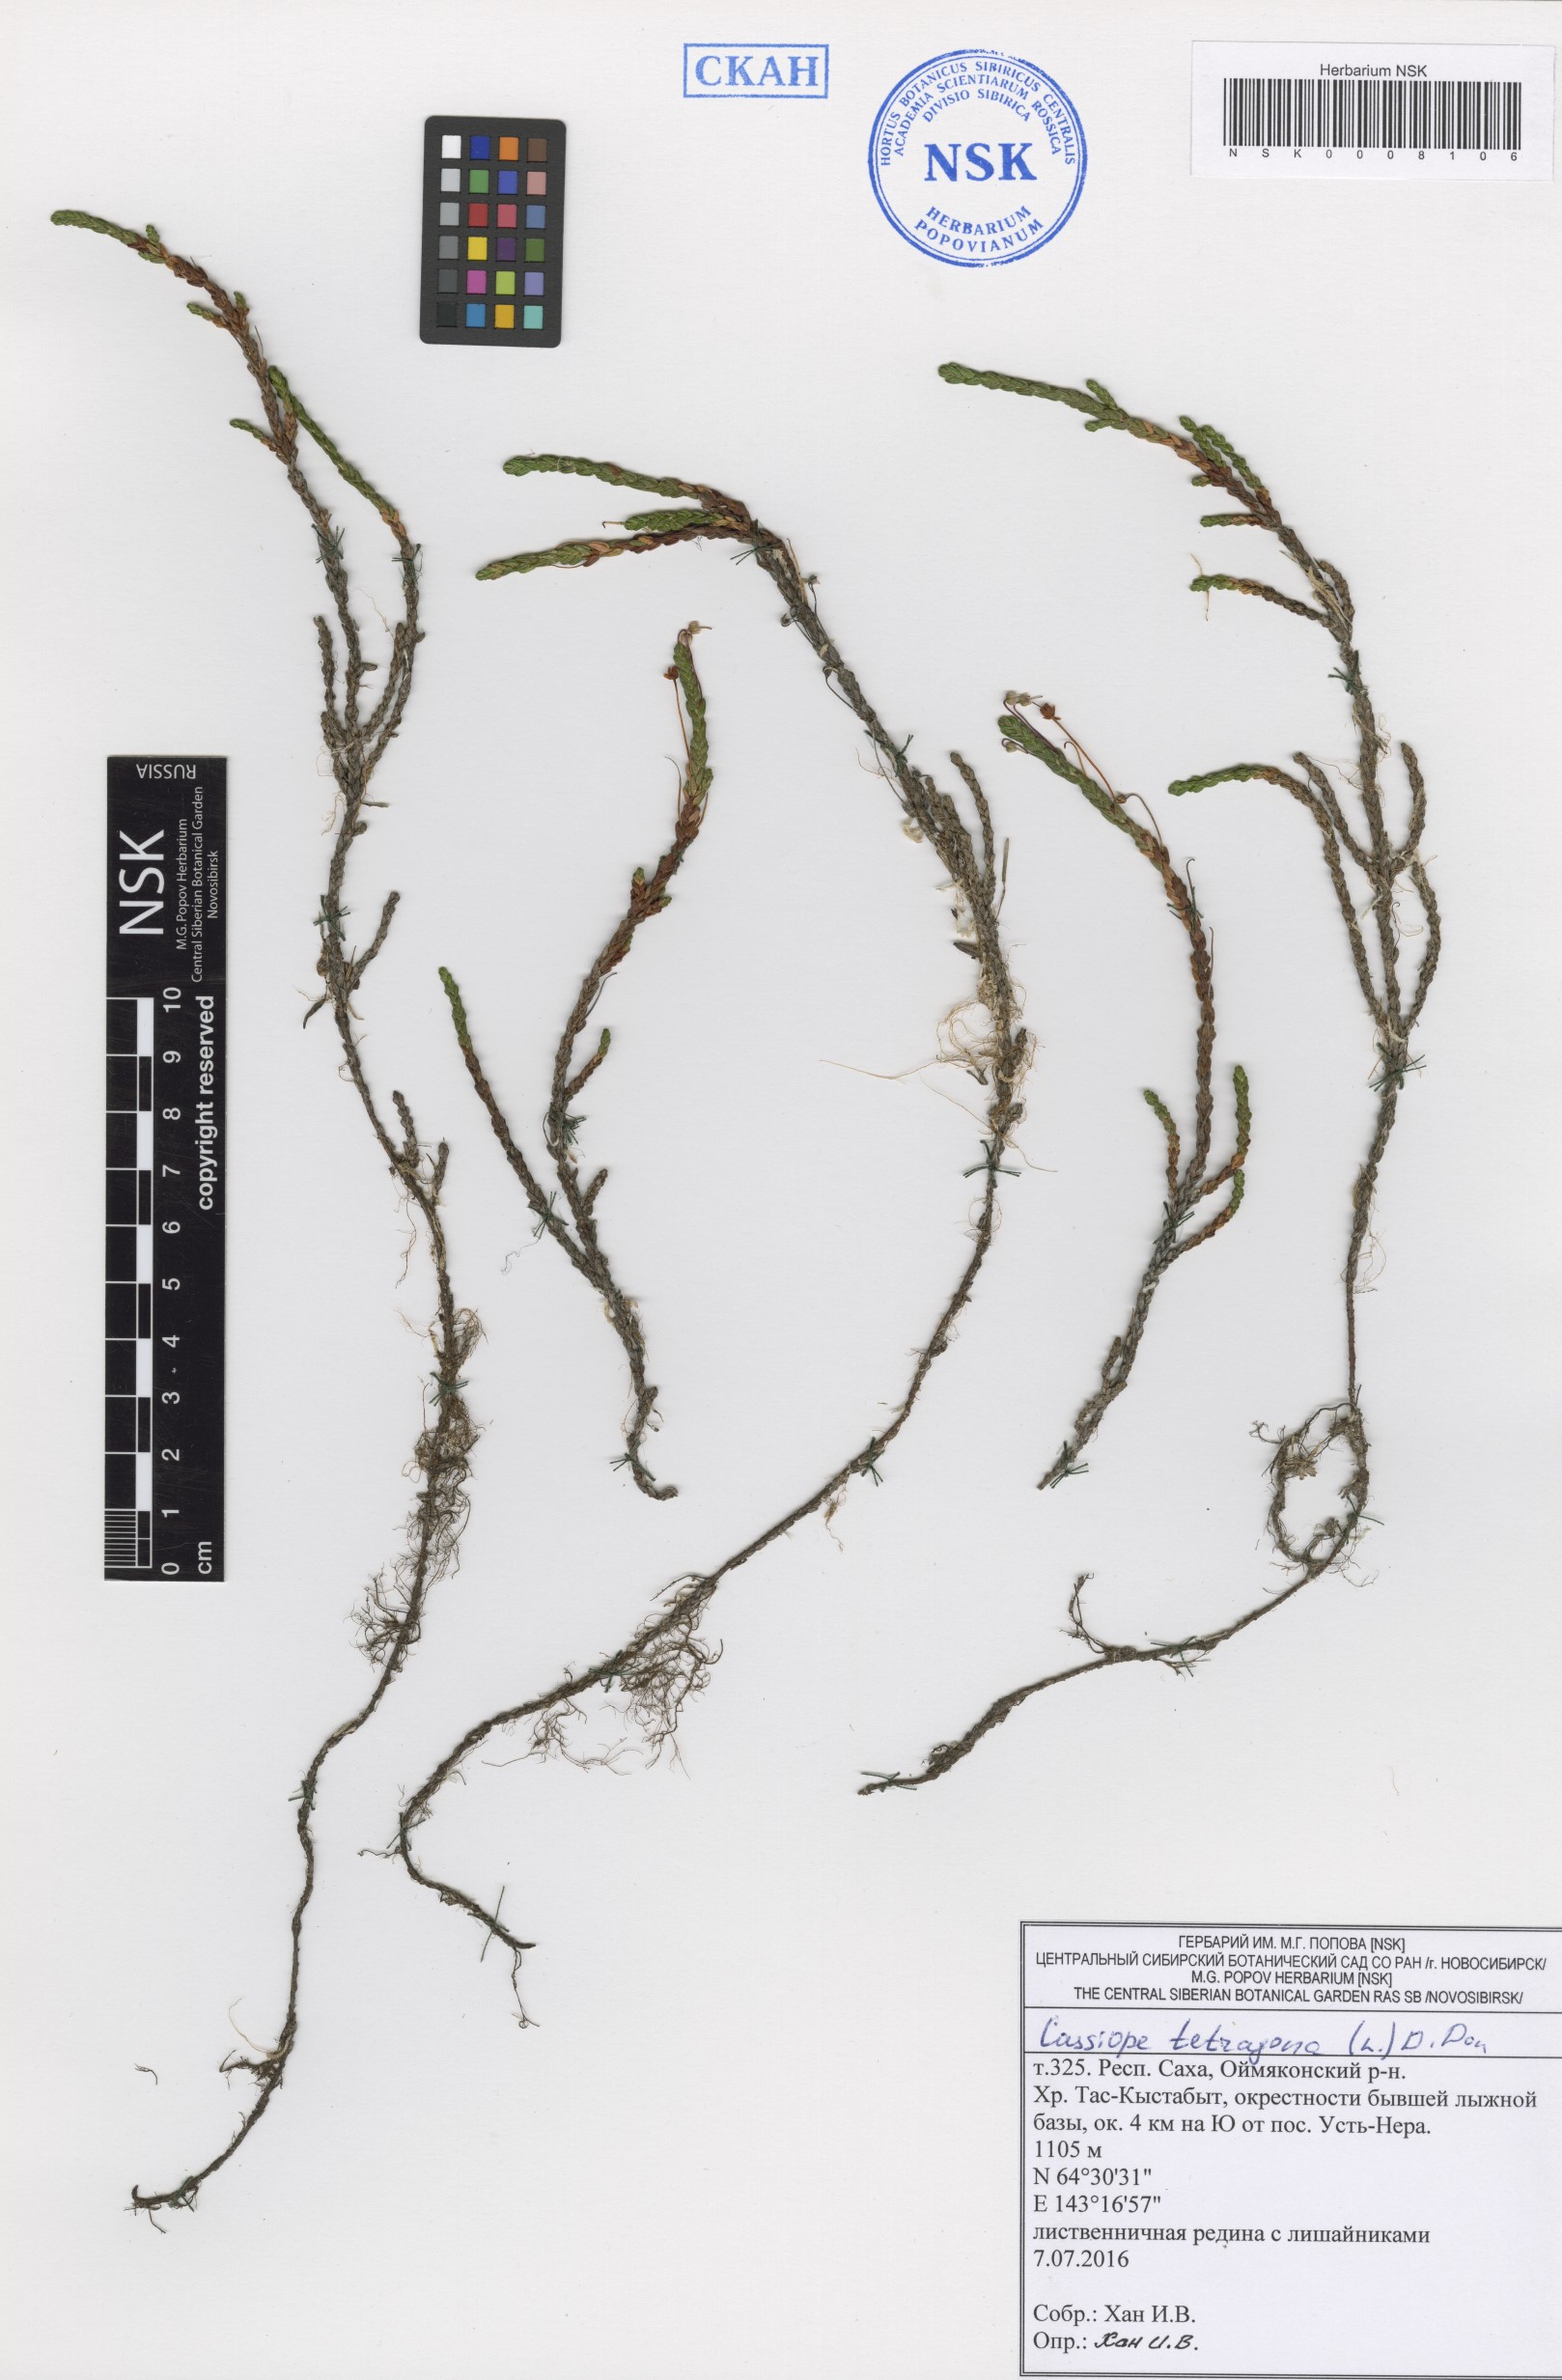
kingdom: Plantae
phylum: Tracheophyta
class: Magnoliopsida
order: Ericales
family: Ericaceae
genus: Cassiope
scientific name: Cassiope tetragona
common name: Arctic bell heather
